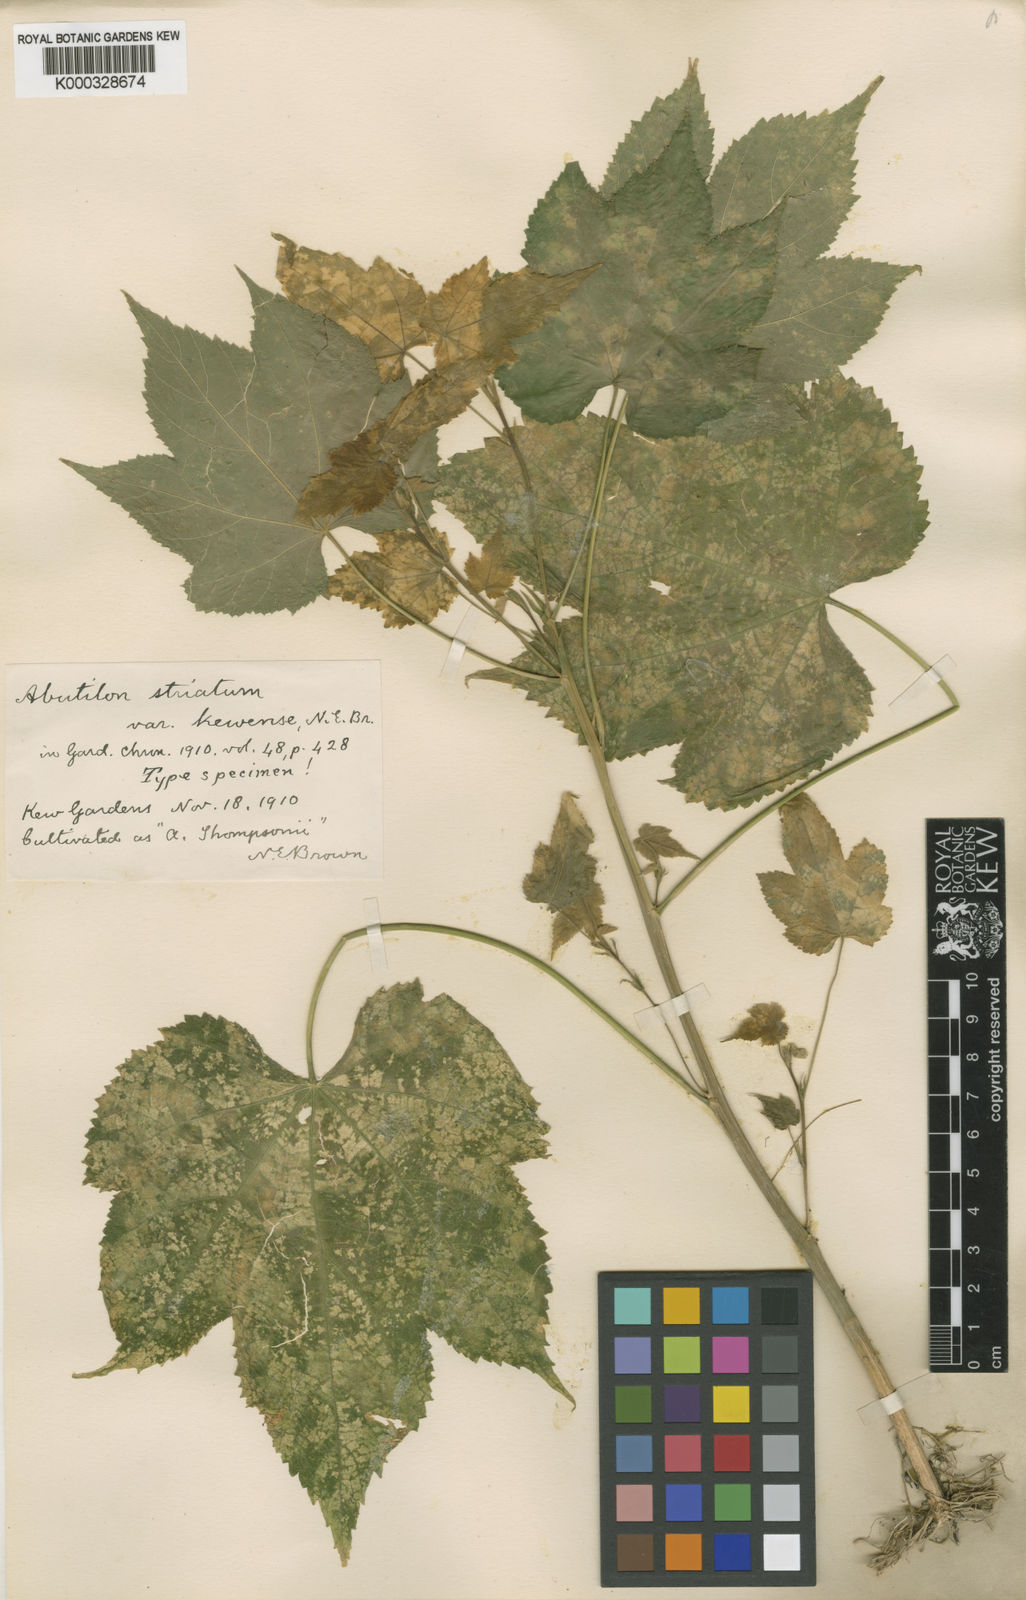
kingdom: Plantae
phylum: Tracheophyta
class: Magnoliopsida
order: Malvales
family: Malvaceae
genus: Abutilon
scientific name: Abutilon
